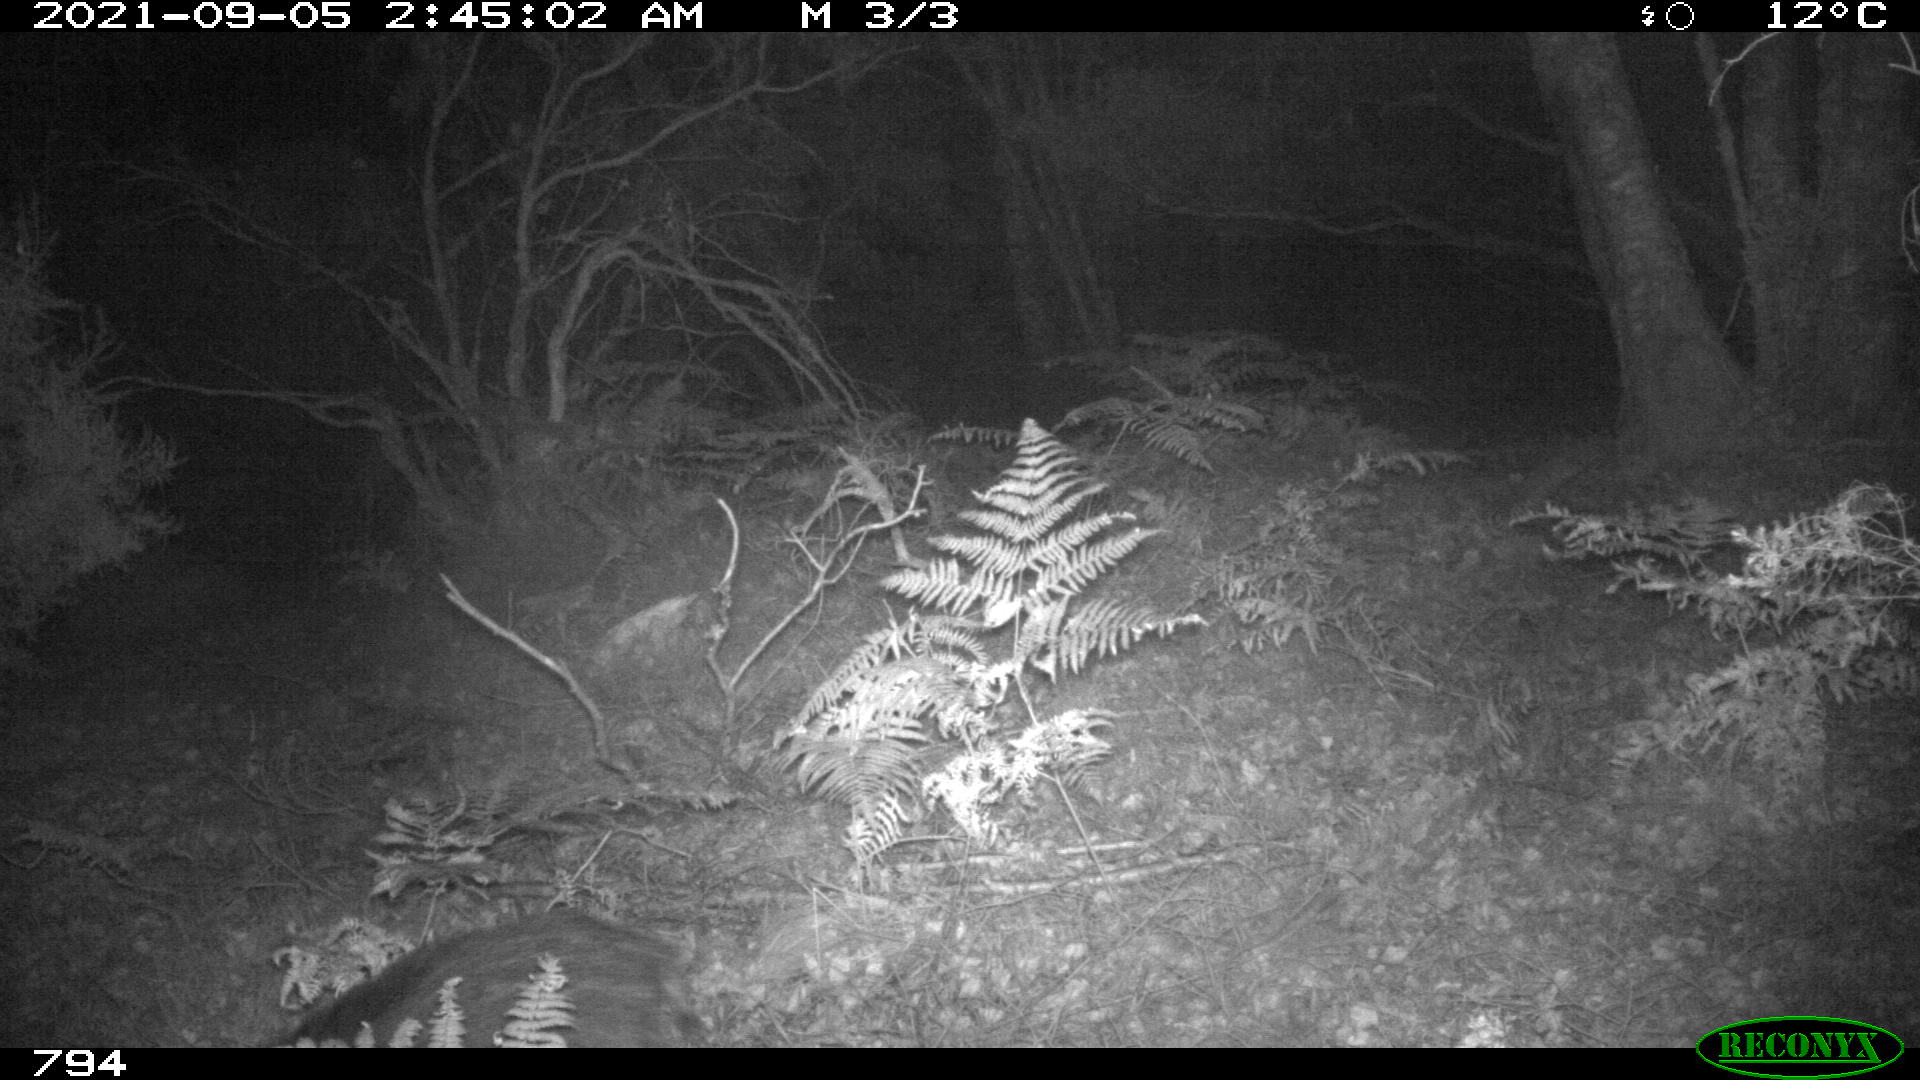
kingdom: Animalia
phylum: Chordata
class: Mammalia
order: Artiodactyla
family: Suidae
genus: Sus
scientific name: Sus scrofa
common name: Wild boar
